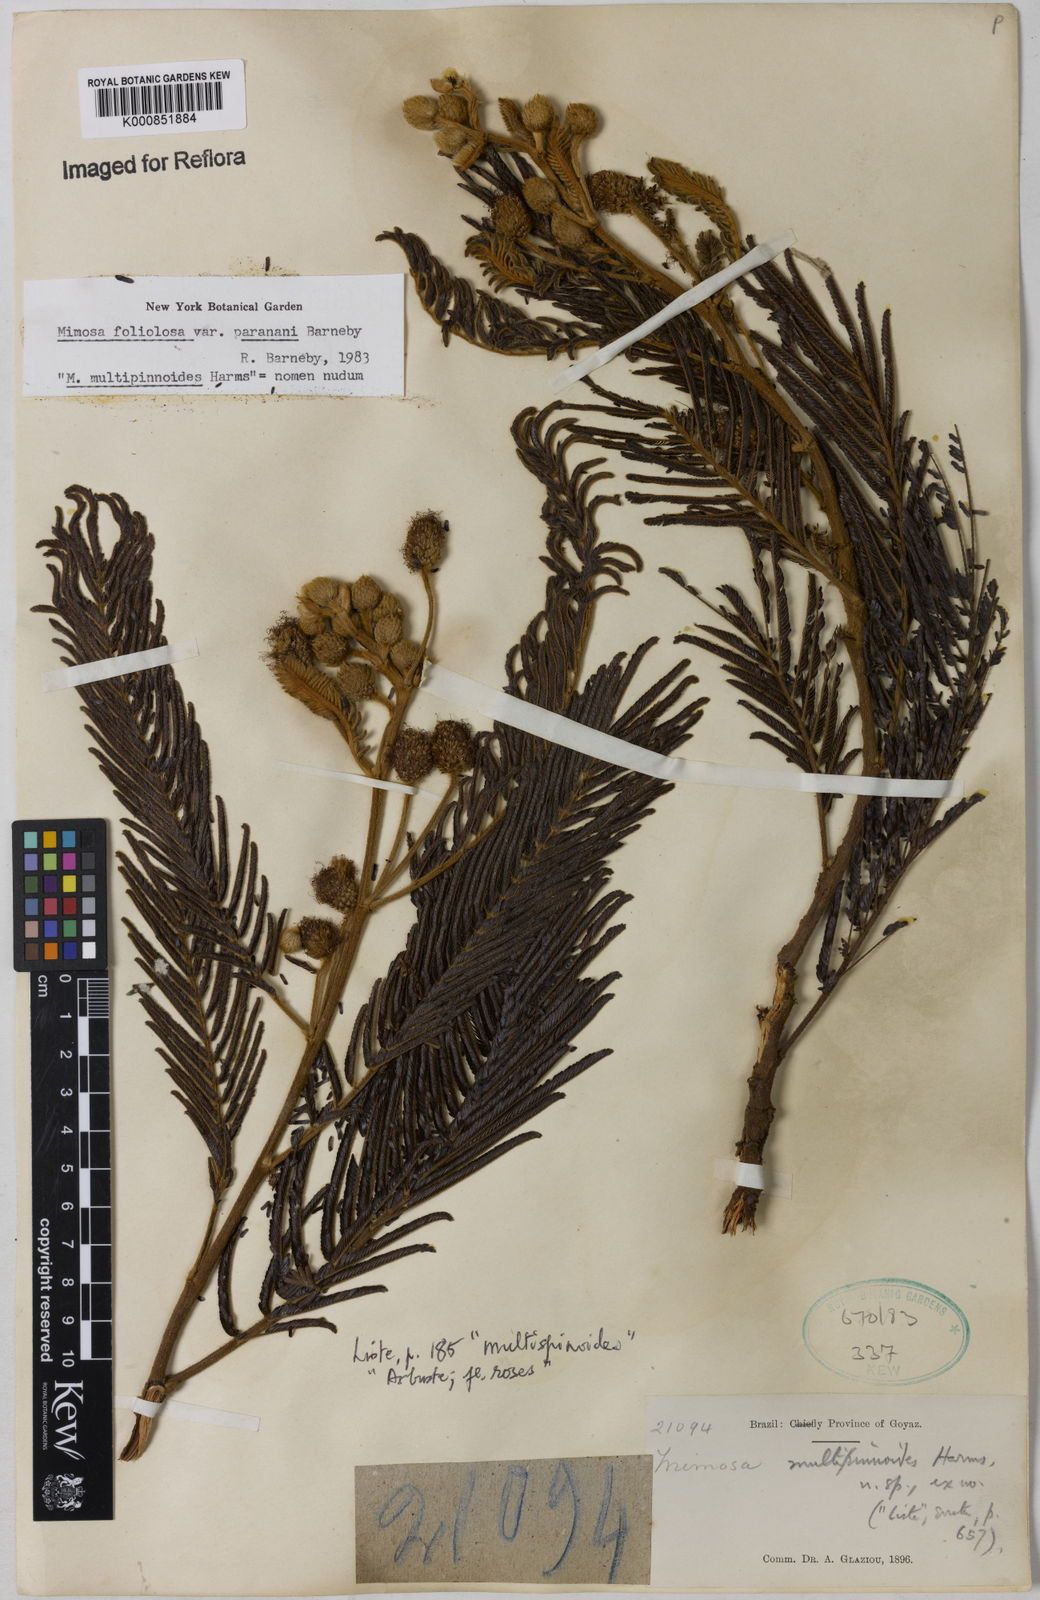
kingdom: Plantae
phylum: Tracheophyta
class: Magnoliopsida
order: Fabales
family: Fabaceae
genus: Mimosa
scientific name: Mimosa foliolosa
